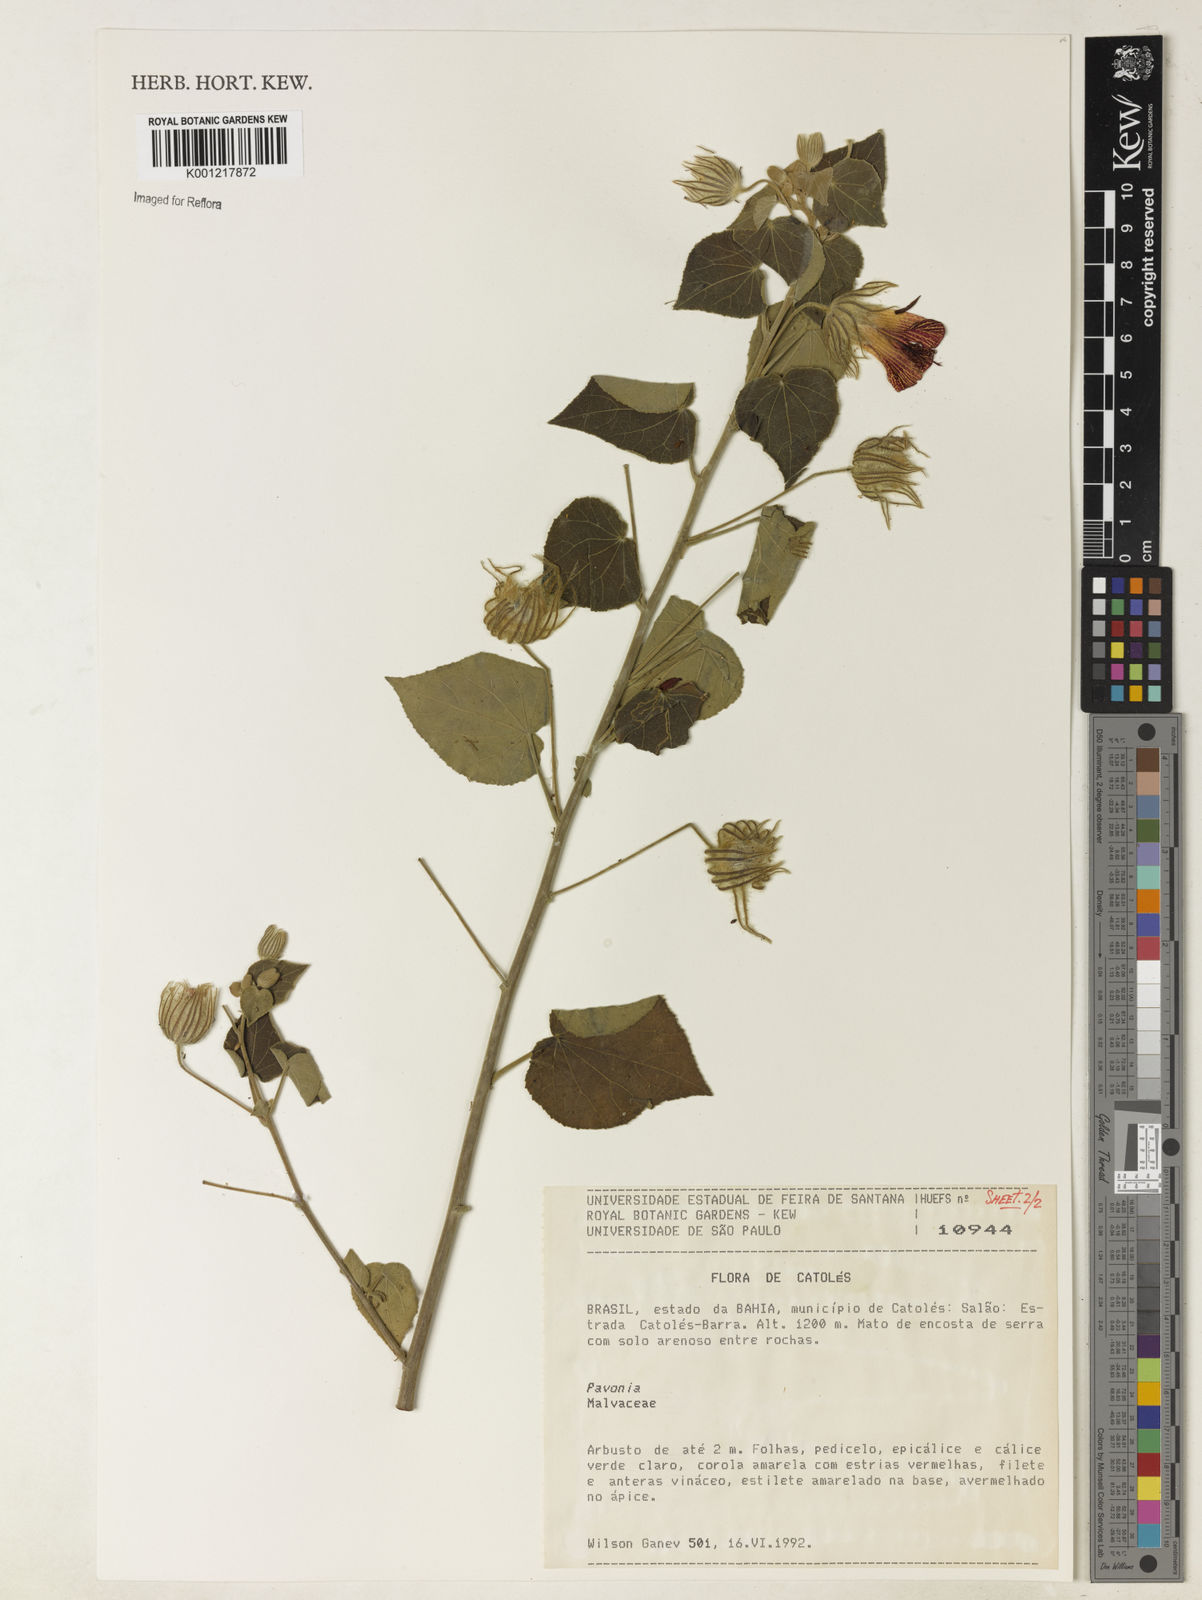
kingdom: Plantae
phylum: Tracheophyta
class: Magnoliopsida
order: Malvales
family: Malvaceae
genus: Pavonia
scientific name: Pavonia
